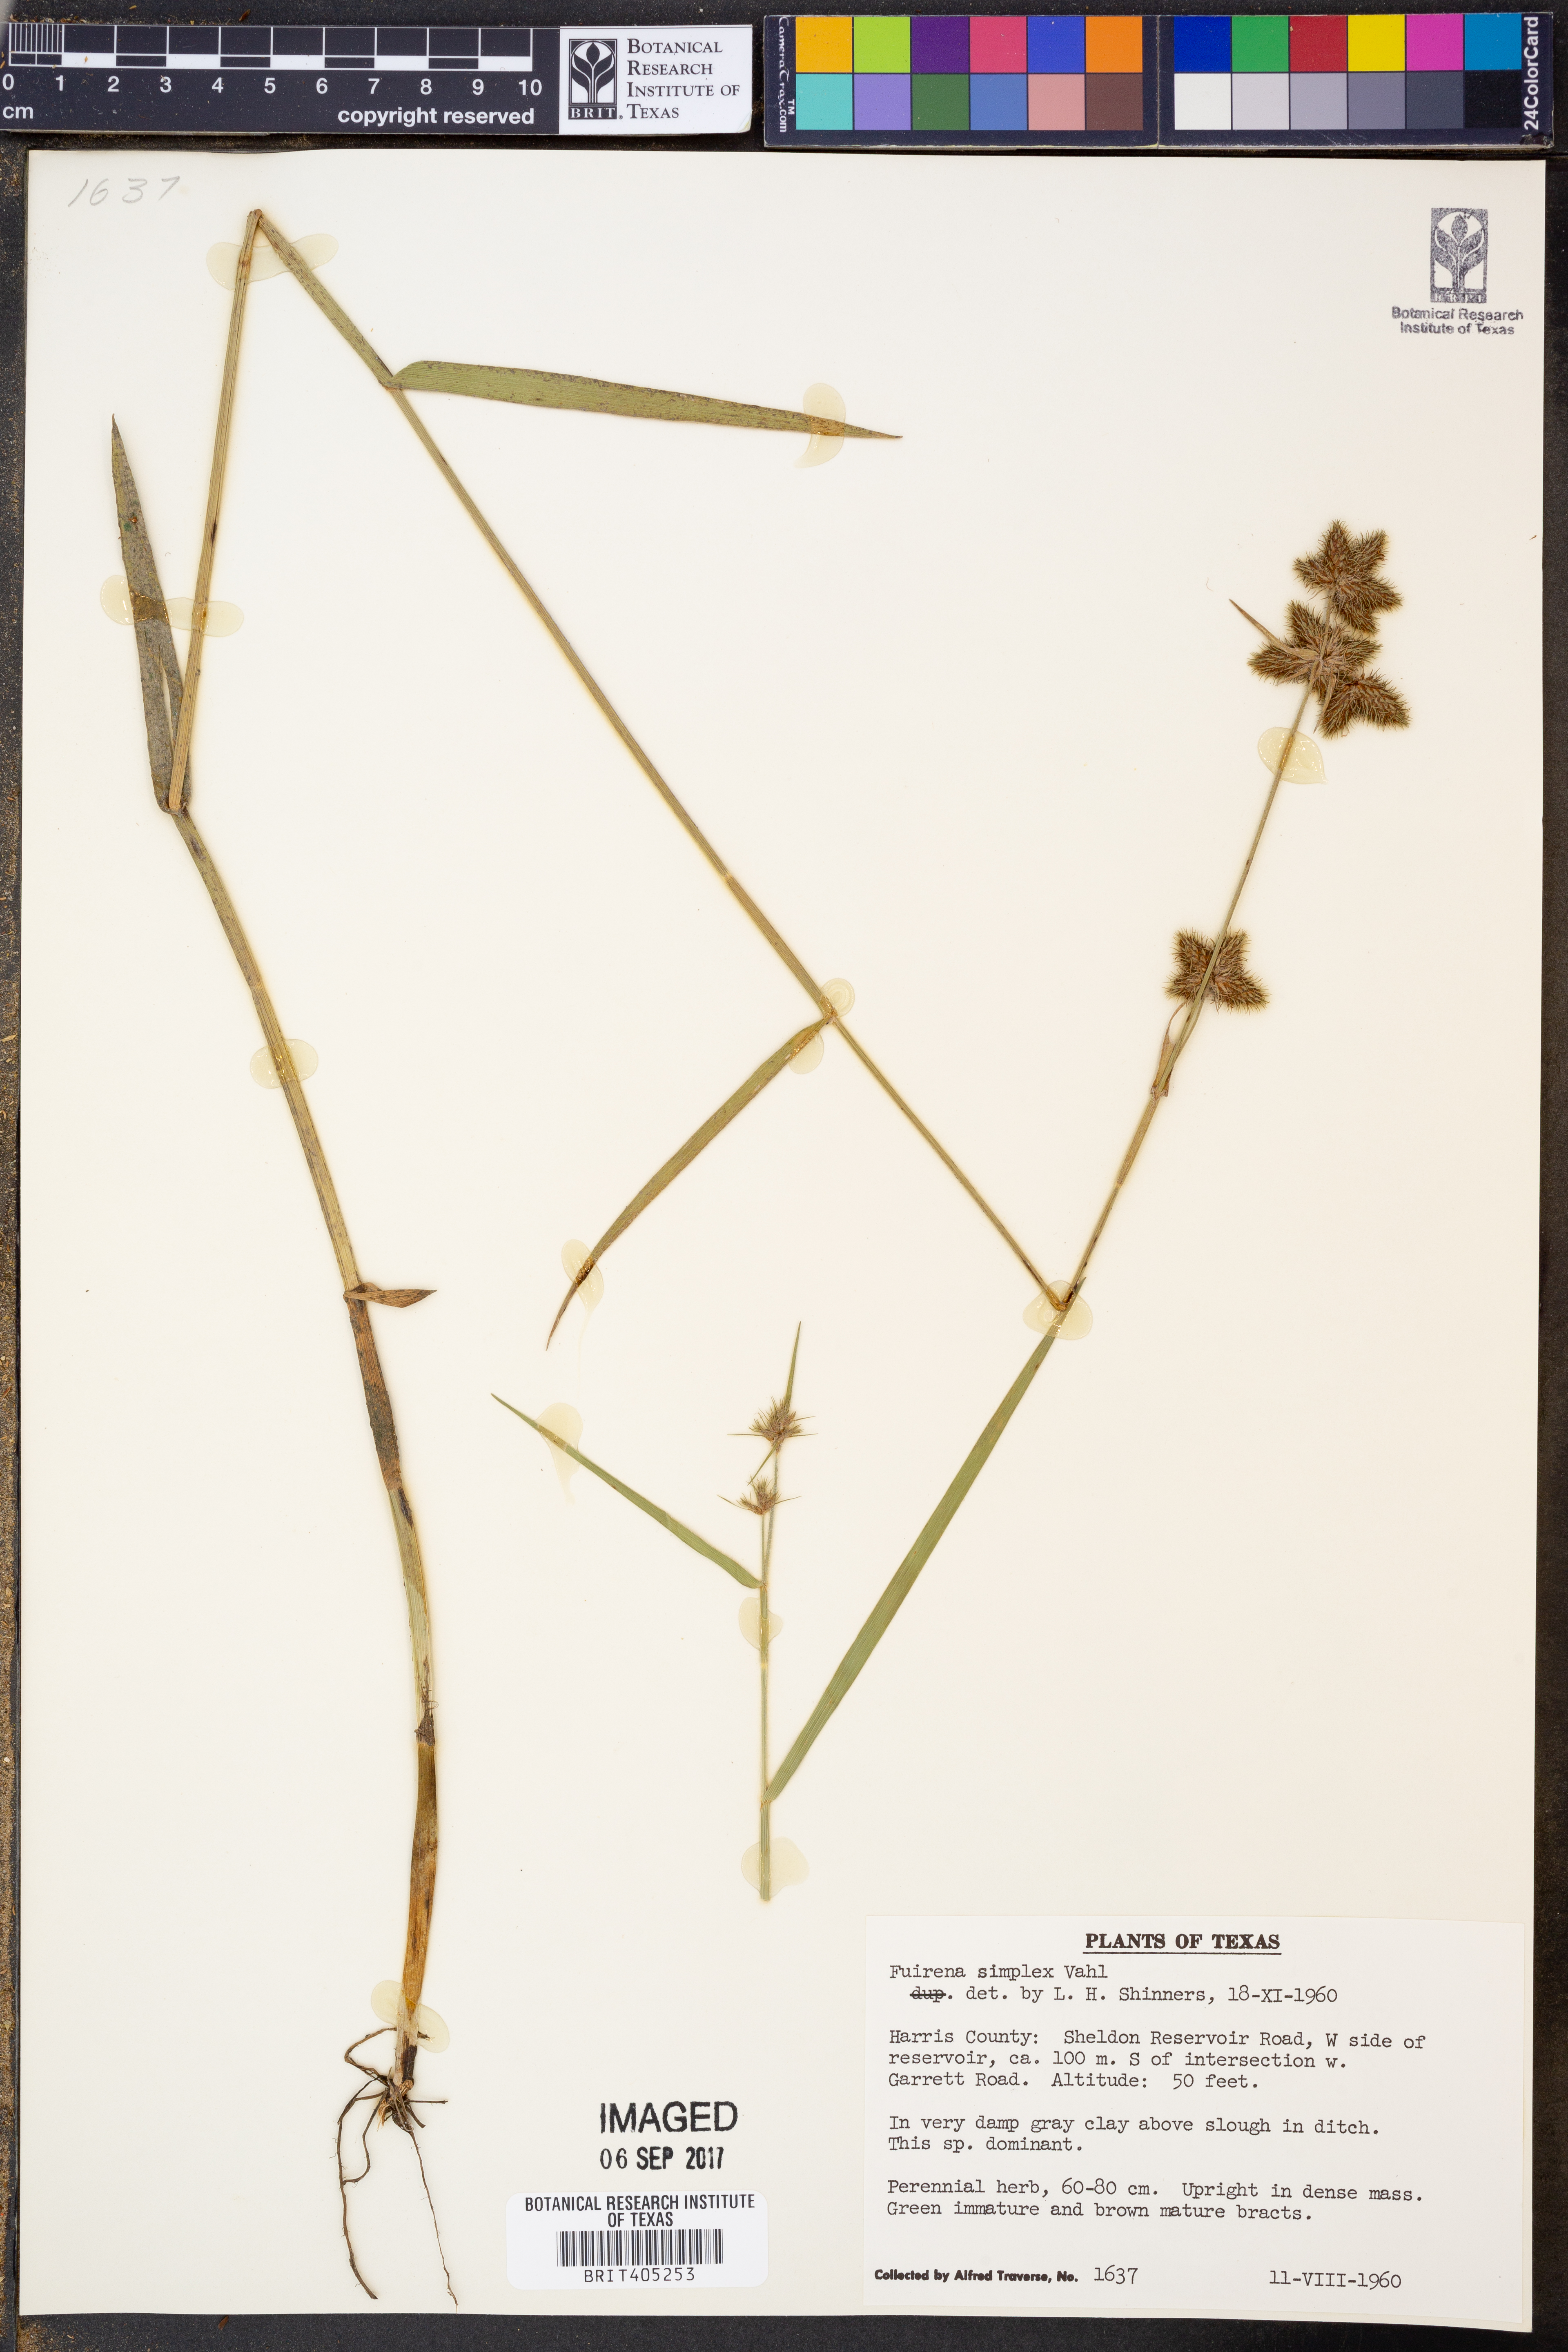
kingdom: Plantae
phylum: Tracheophyta
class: Liliopsida
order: Poales
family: Cyperaceae
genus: Fuirena
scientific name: Fuirena simplex
